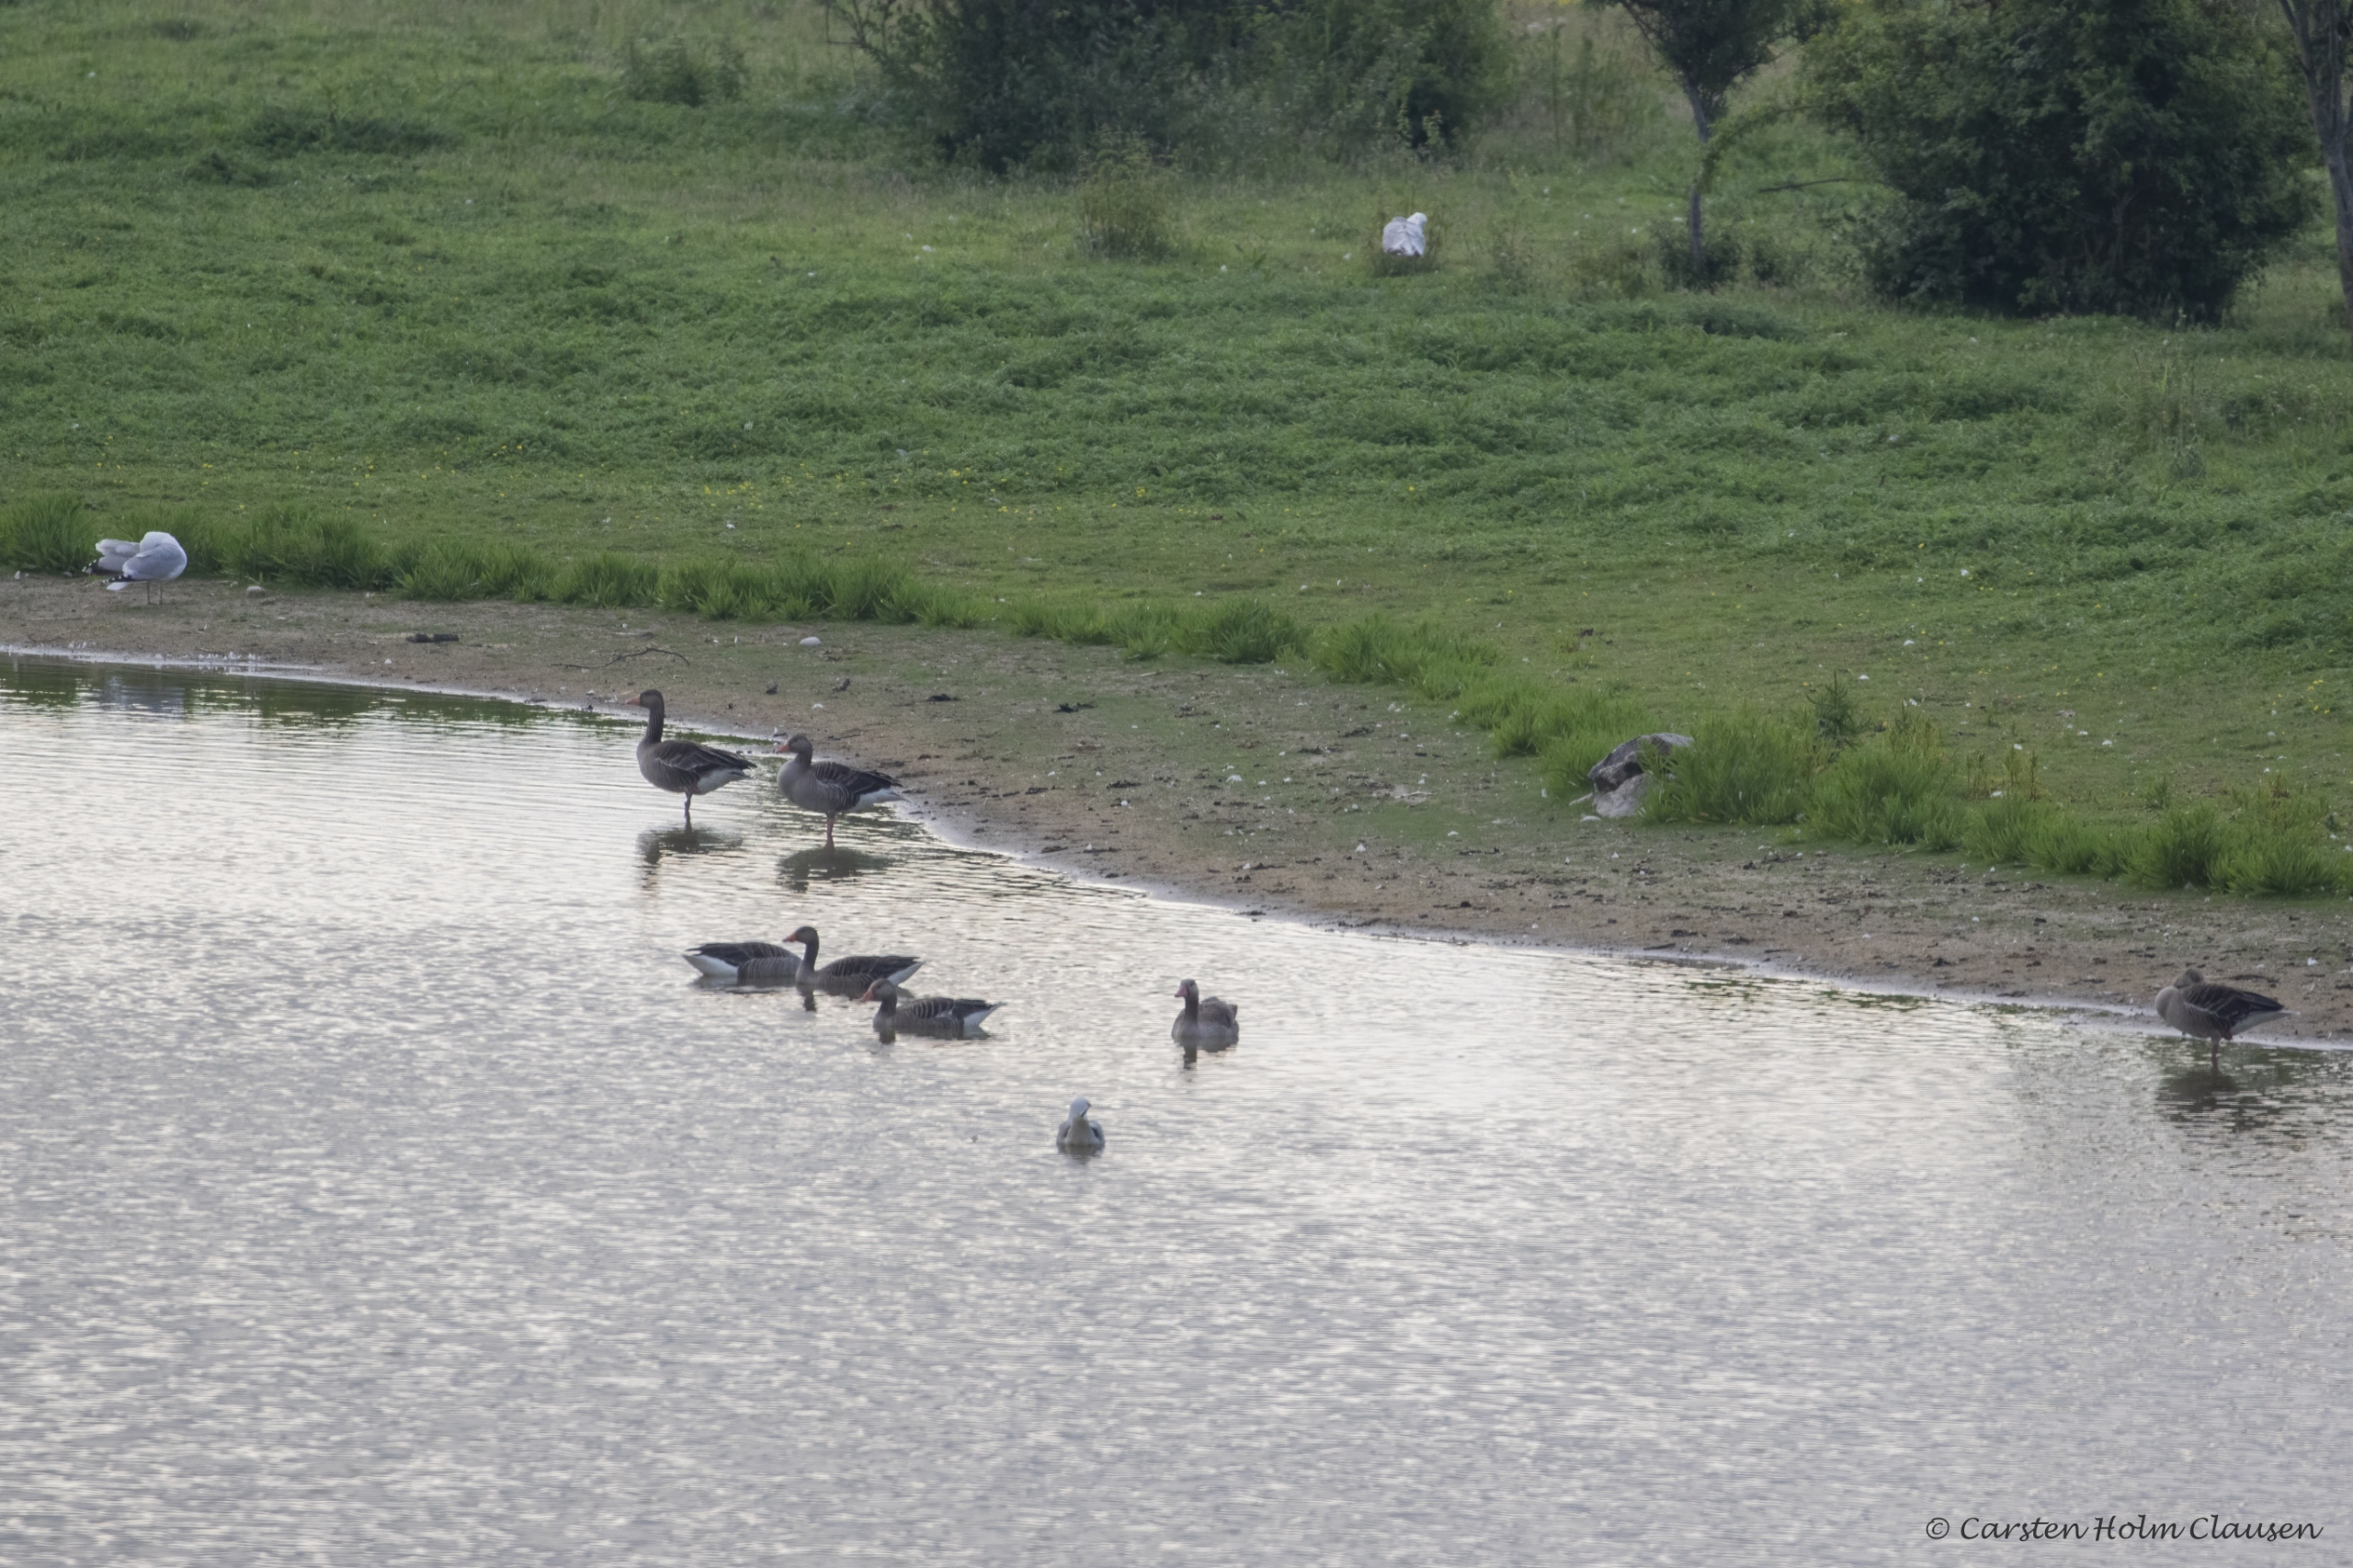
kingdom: Animalia
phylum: Chordata
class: Aves
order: Anseriformes
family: Anatidae
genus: Anser
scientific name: Anser anser
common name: Grågås
